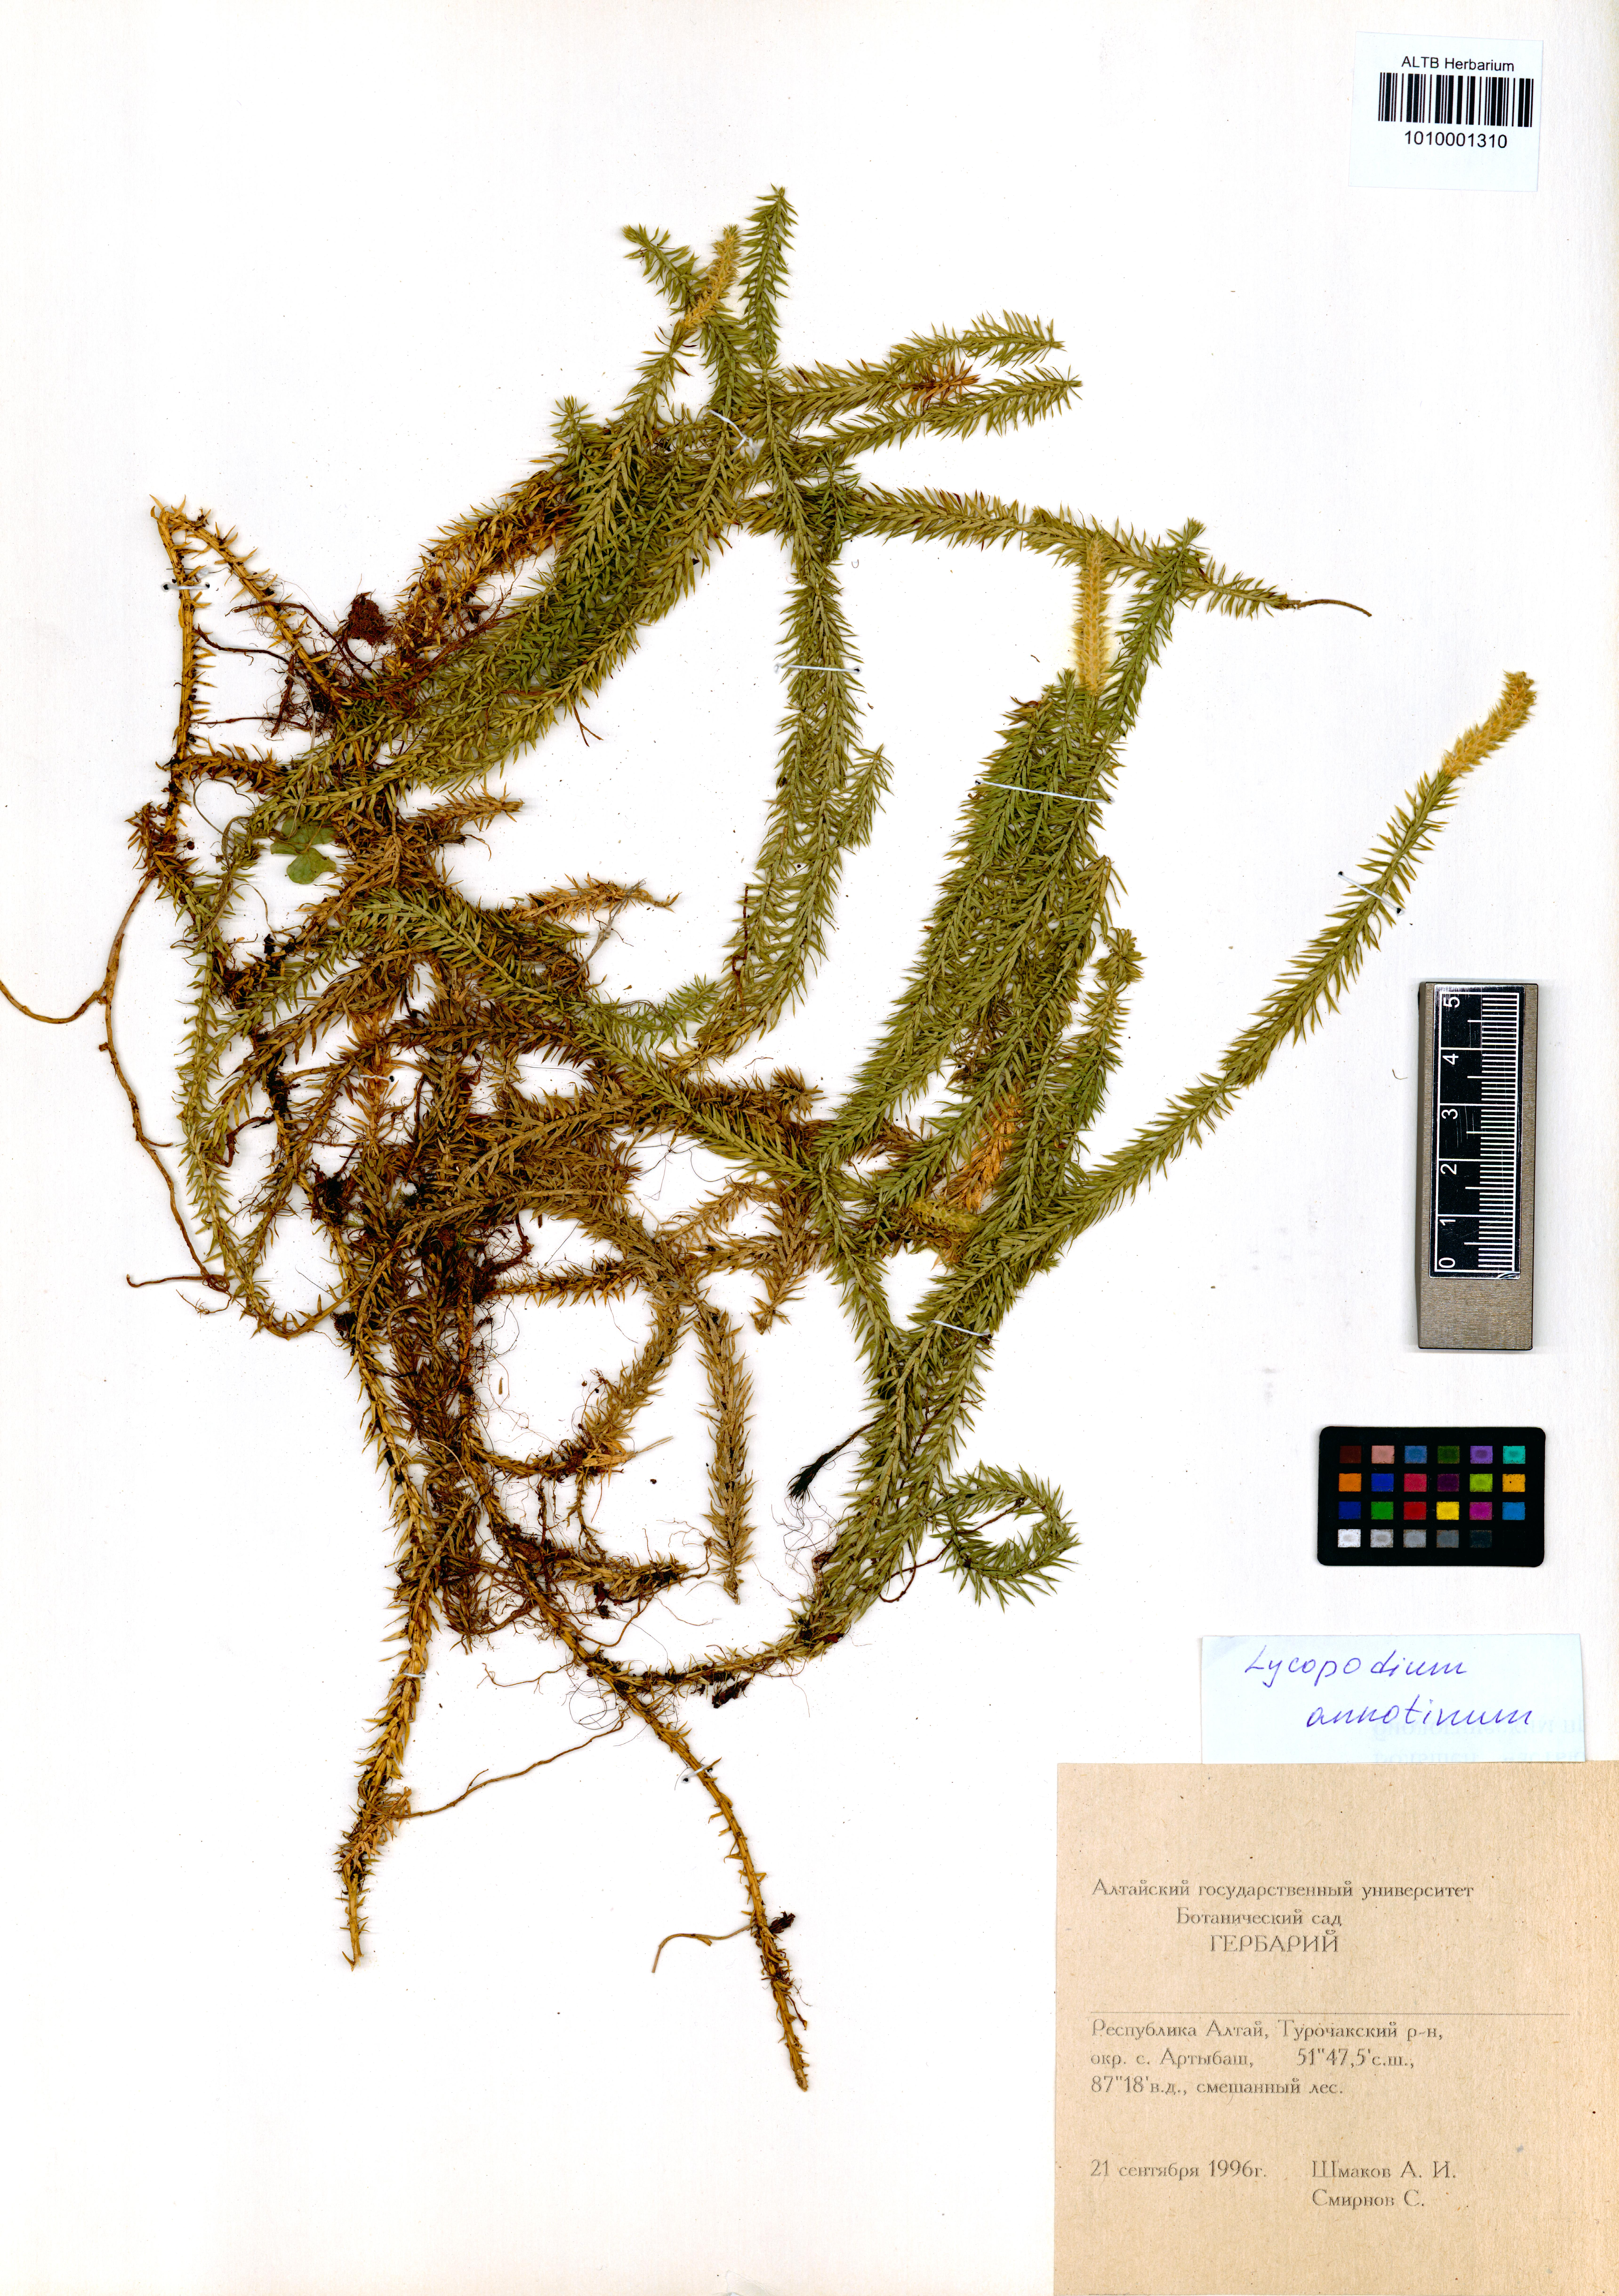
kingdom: Plantae
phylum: Tracheophyta
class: Lycopodiopsida
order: Lycopodiales
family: Lycopodiaceae
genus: Spinulum
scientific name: Spinulum annotinum
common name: Interrupted club-moss
